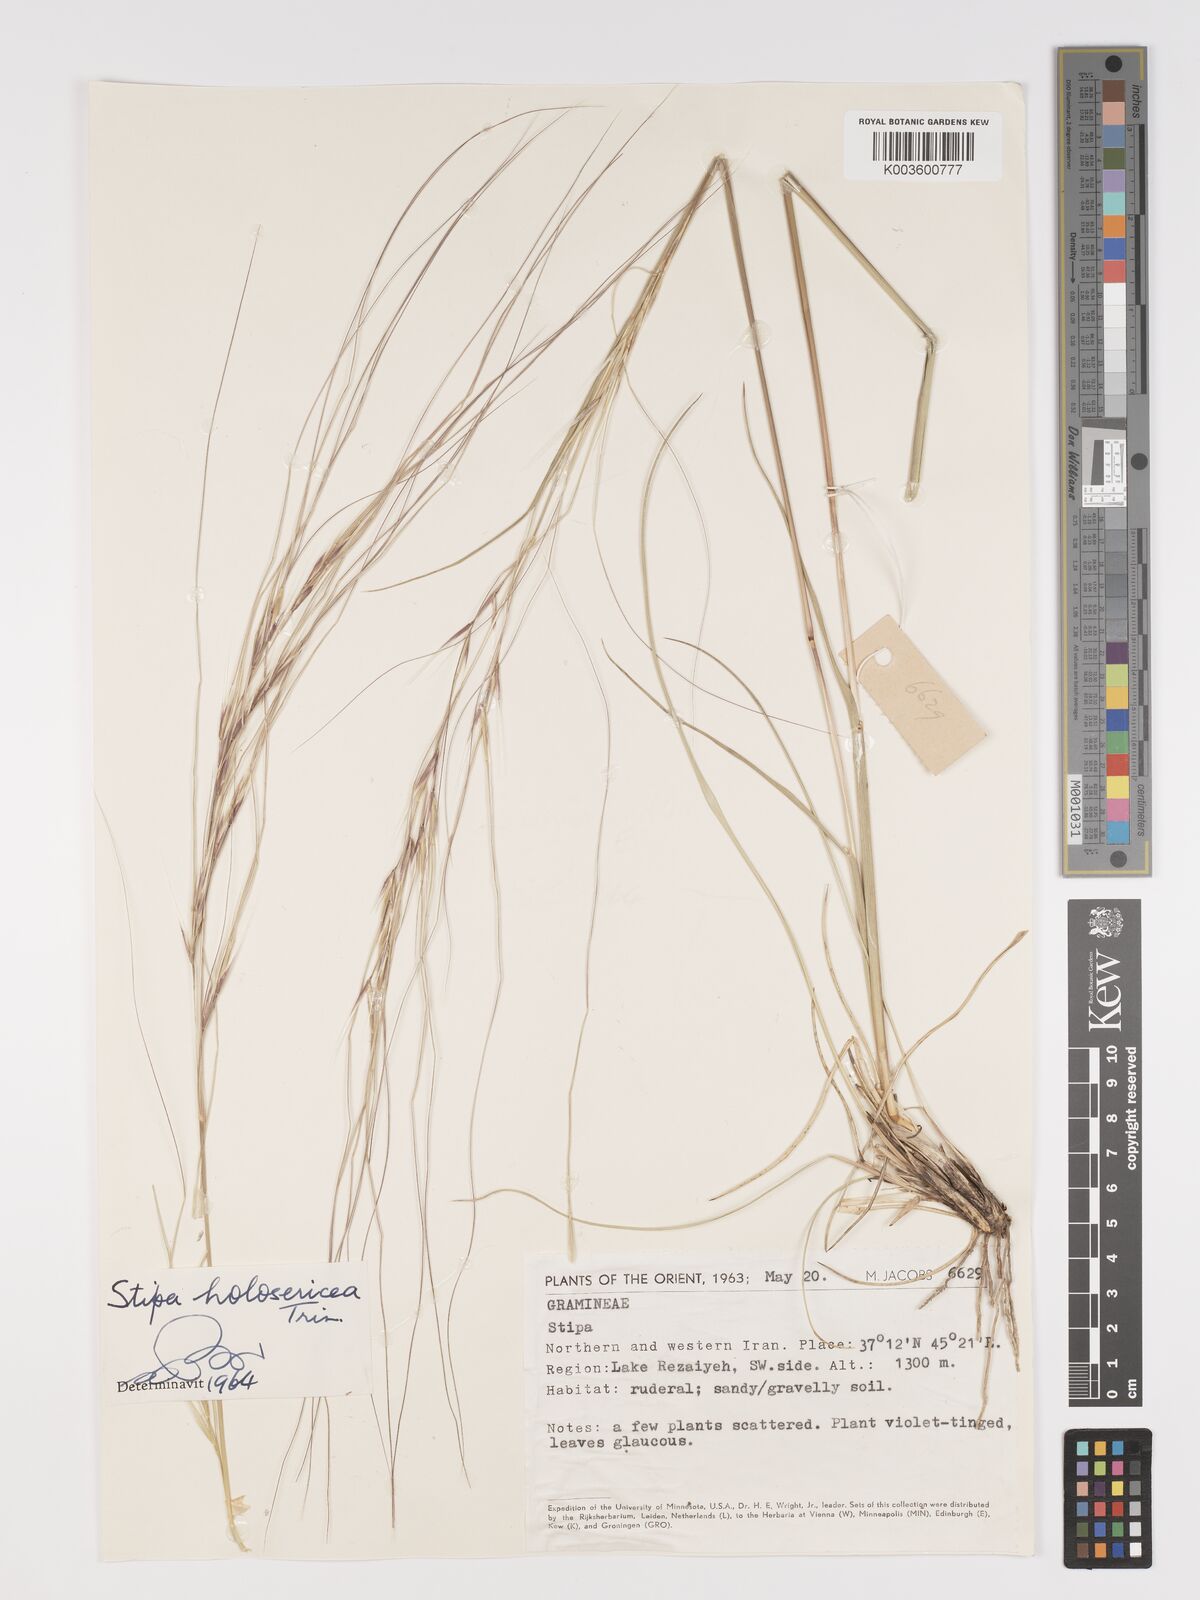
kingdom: Plantae
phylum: Tracheophyta
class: Liliopsida
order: Poales
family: Poaceae
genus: Stipa
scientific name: Stipa lagascae
